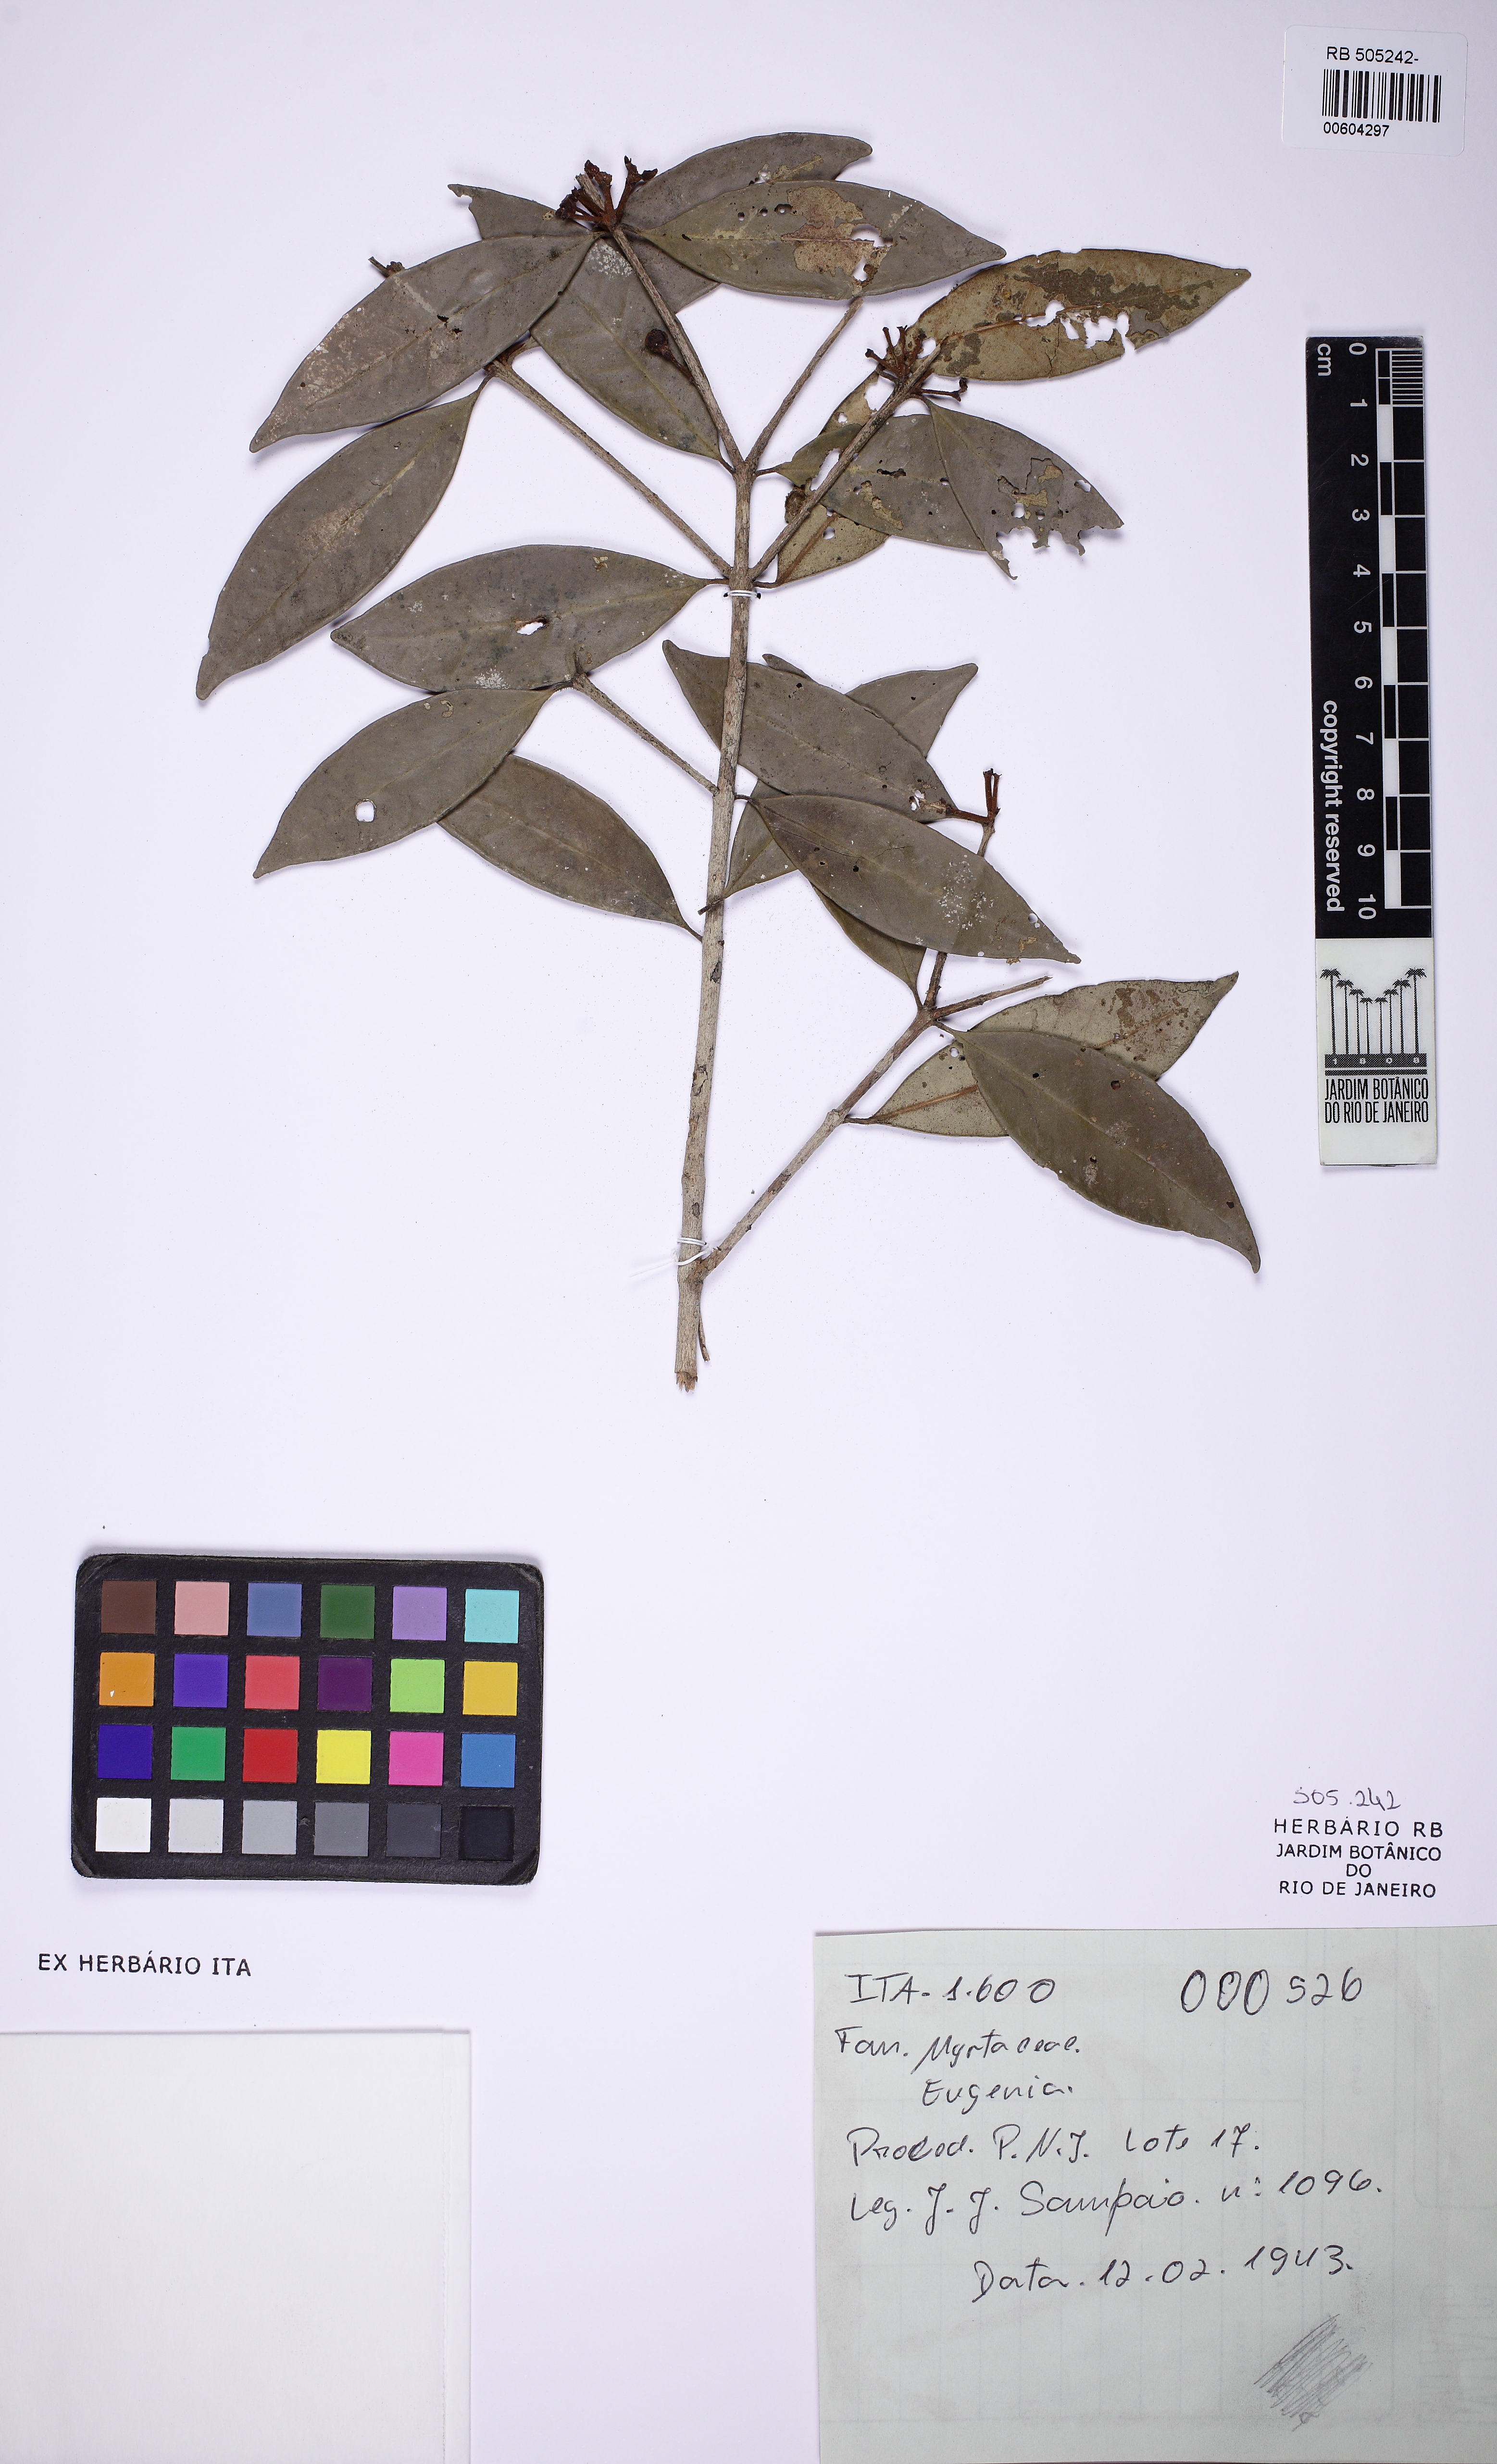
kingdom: Plantae
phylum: Tracheophyta
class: Magnoliopsida
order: Myrtales
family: Myrtaceae
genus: Eugenia
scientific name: Eugenia mimetica
